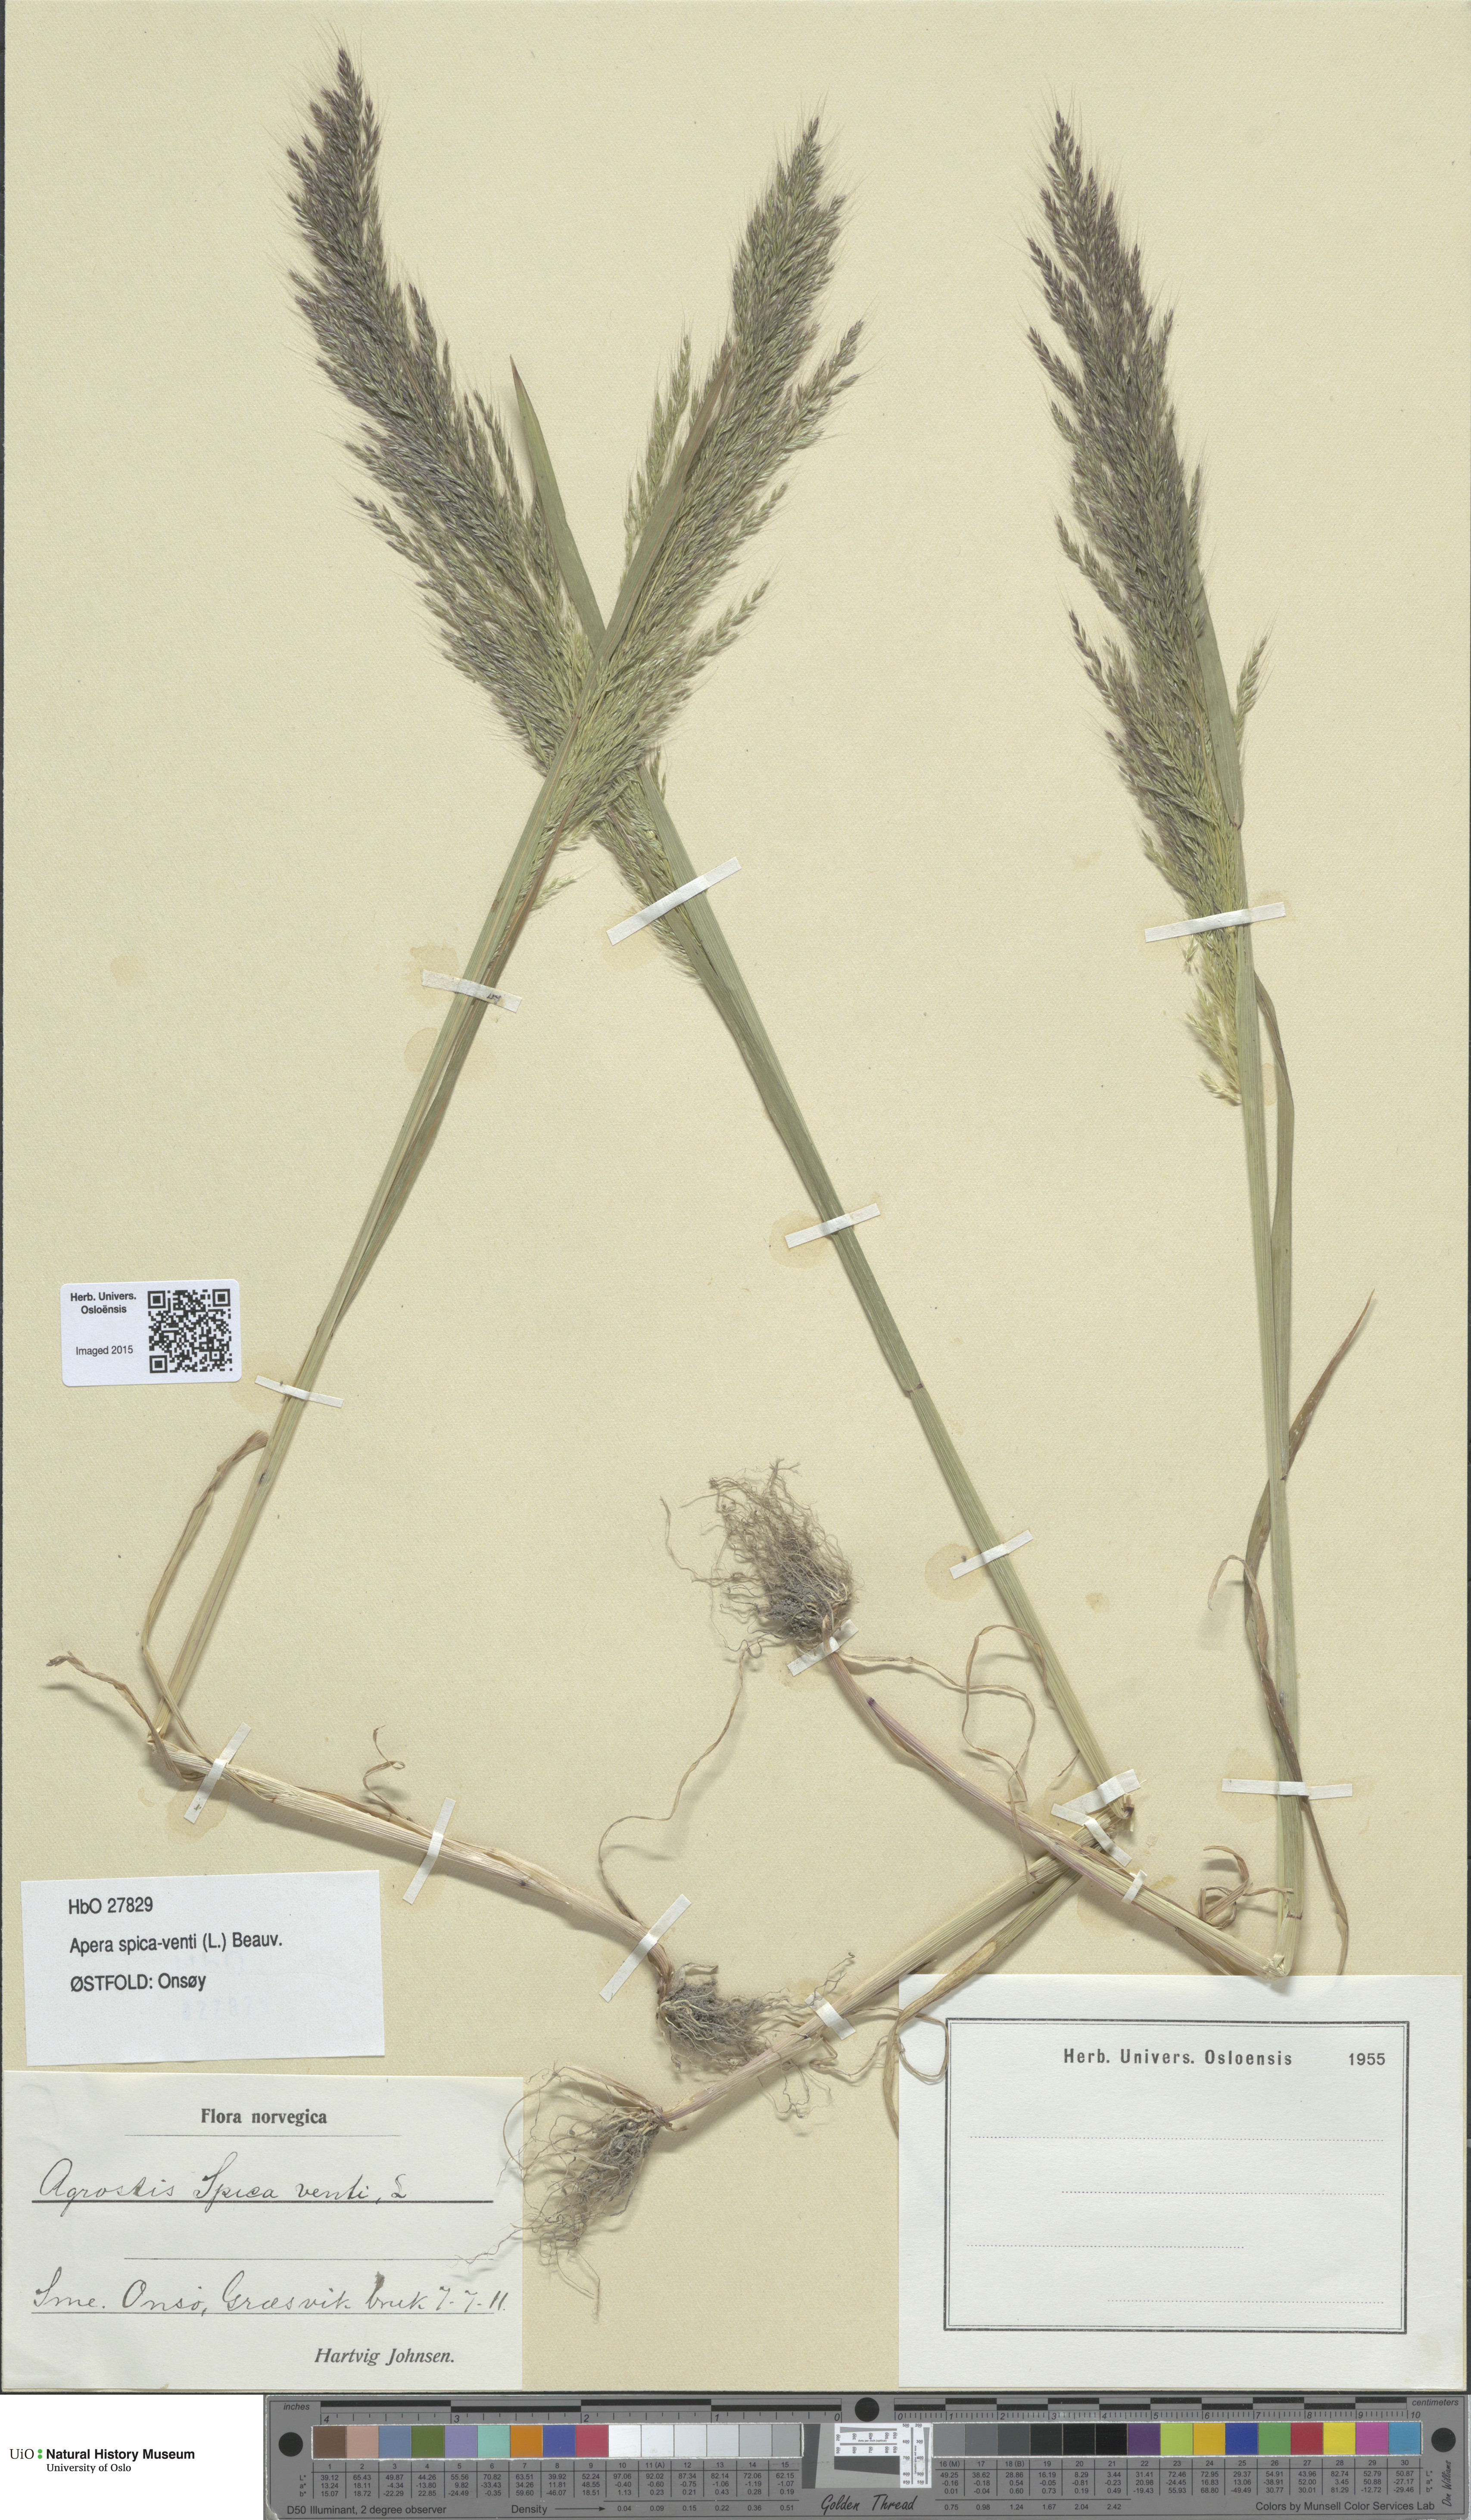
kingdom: Plantae
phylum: Tracheophyta
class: Liliopsida
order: Poales
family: Poaceae
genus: Apera
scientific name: Apera spica-venti
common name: Loose silky-bent
